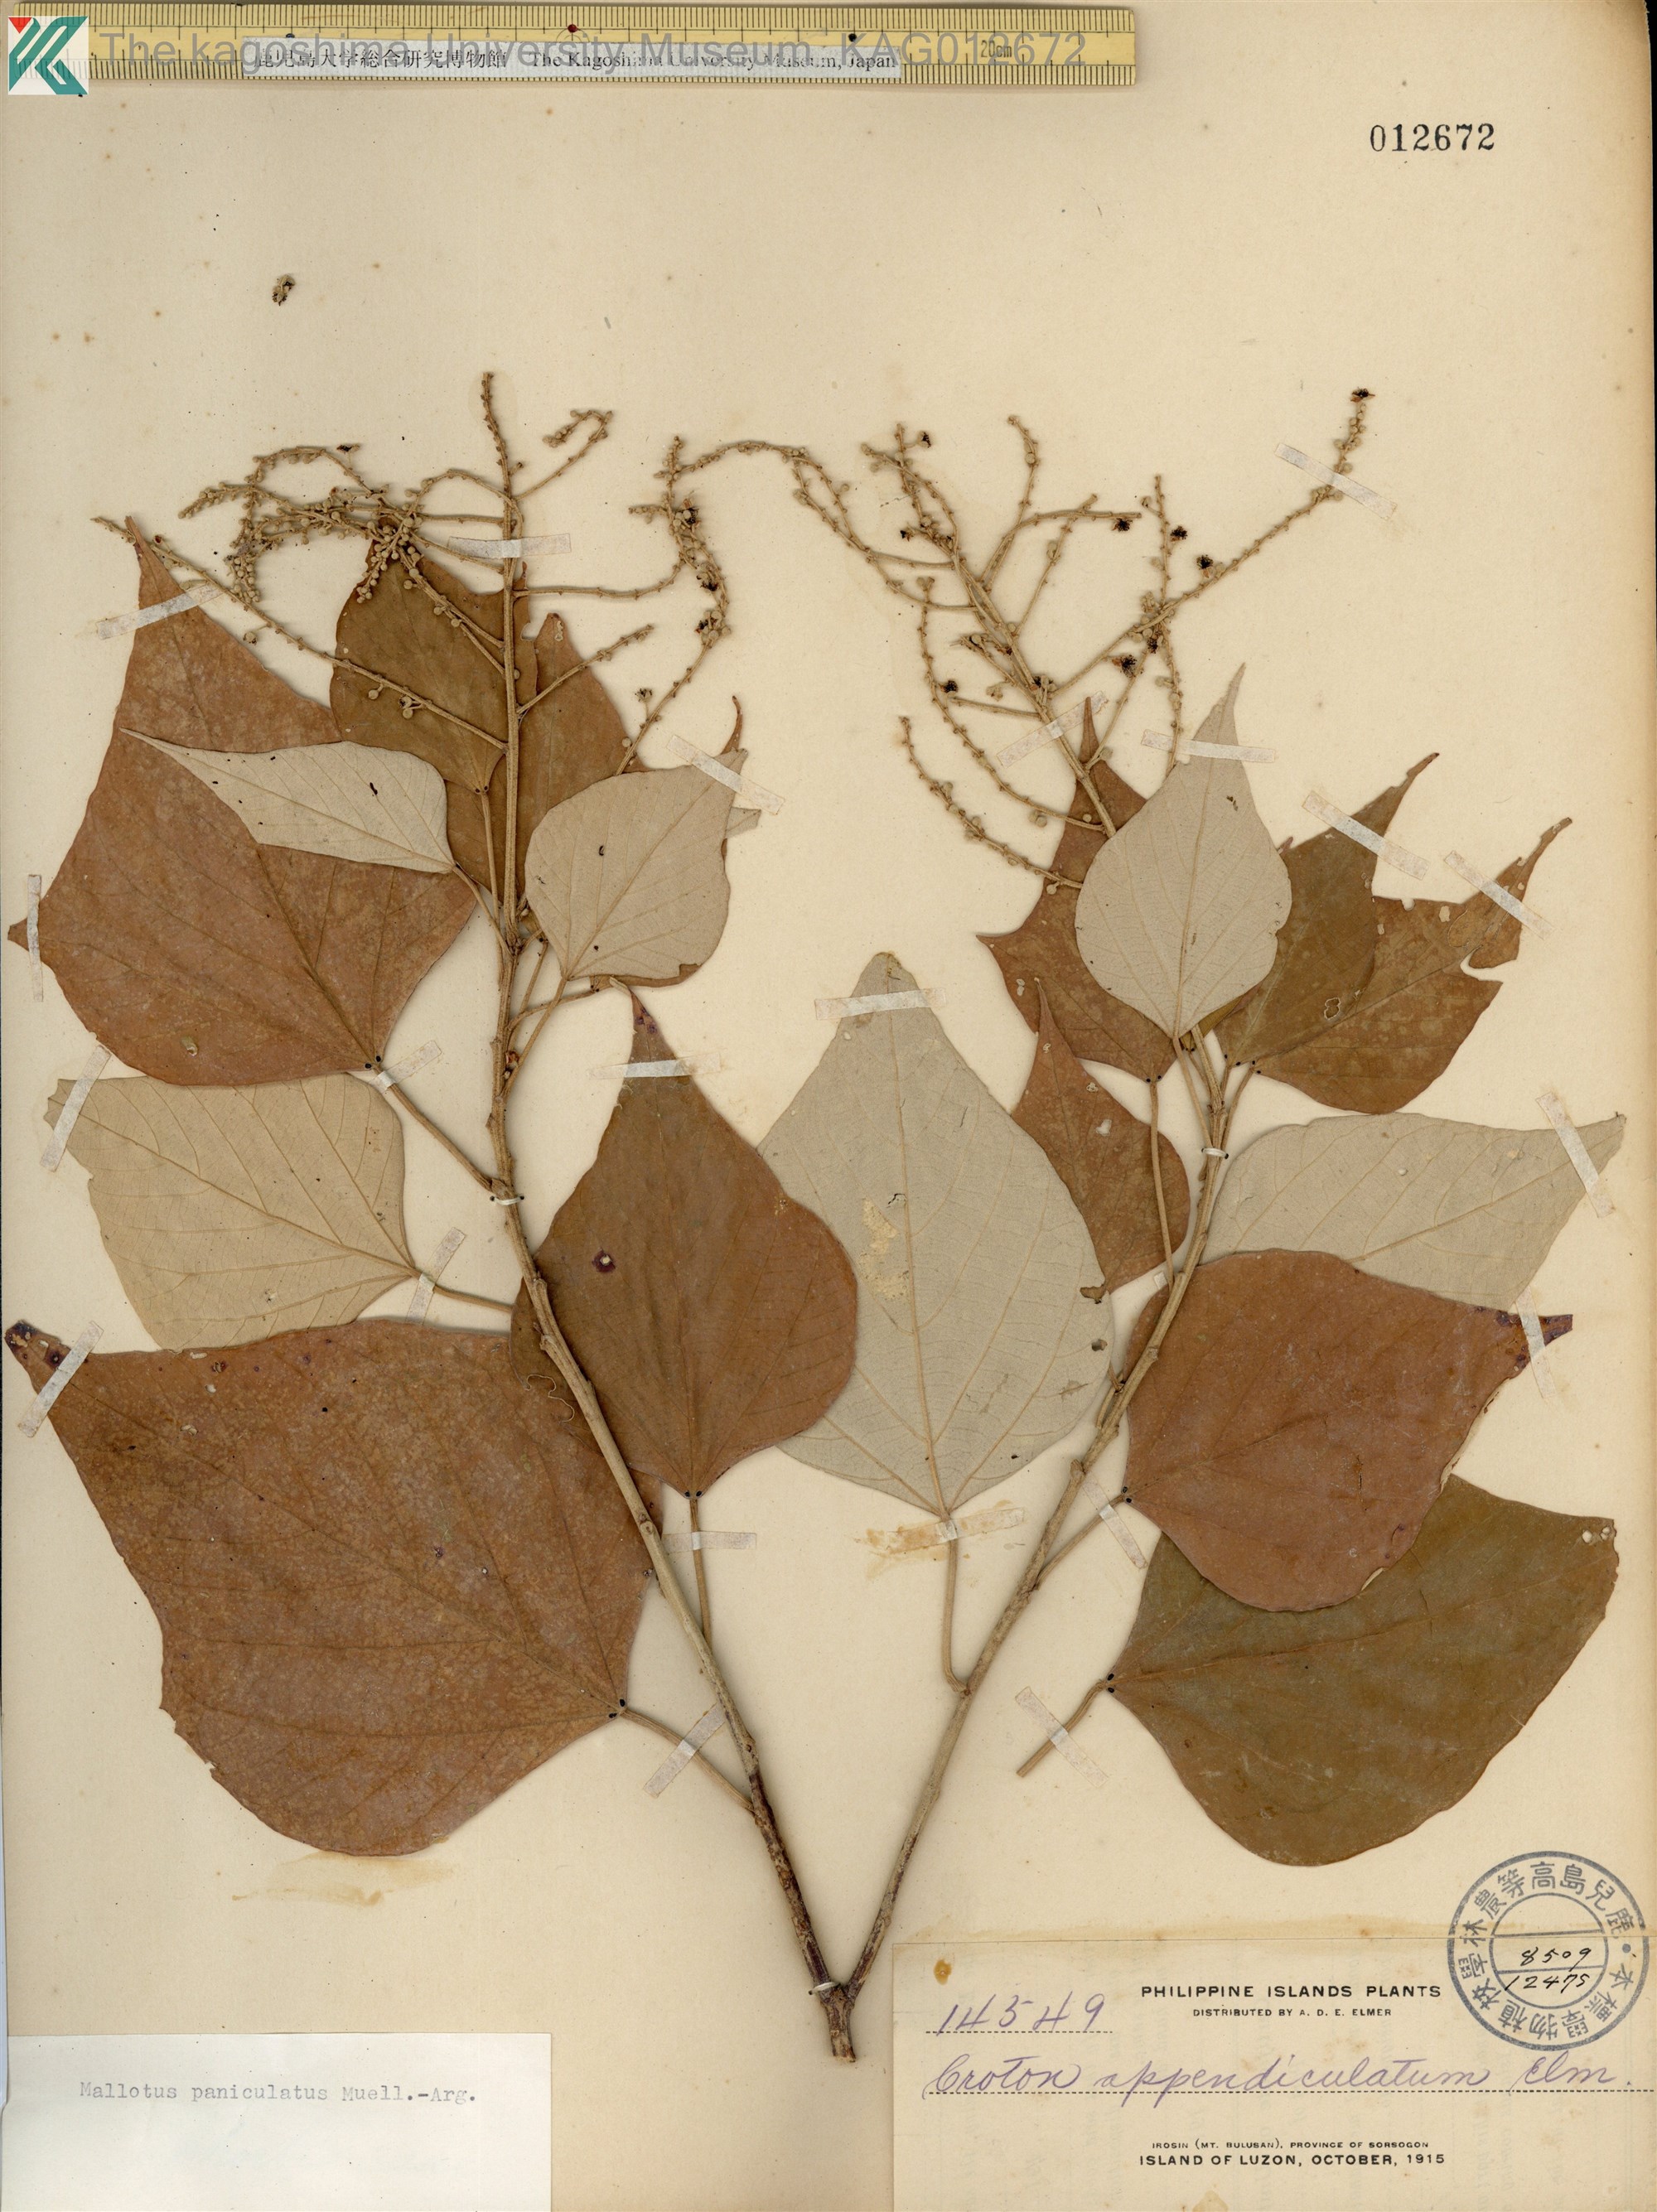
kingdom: Plantae
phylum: Tracheophyta
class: Magnoliopsida
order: Malpighiales
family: Euphorbiaceae
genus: Mallotus
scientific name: Mallotus paniculatus
